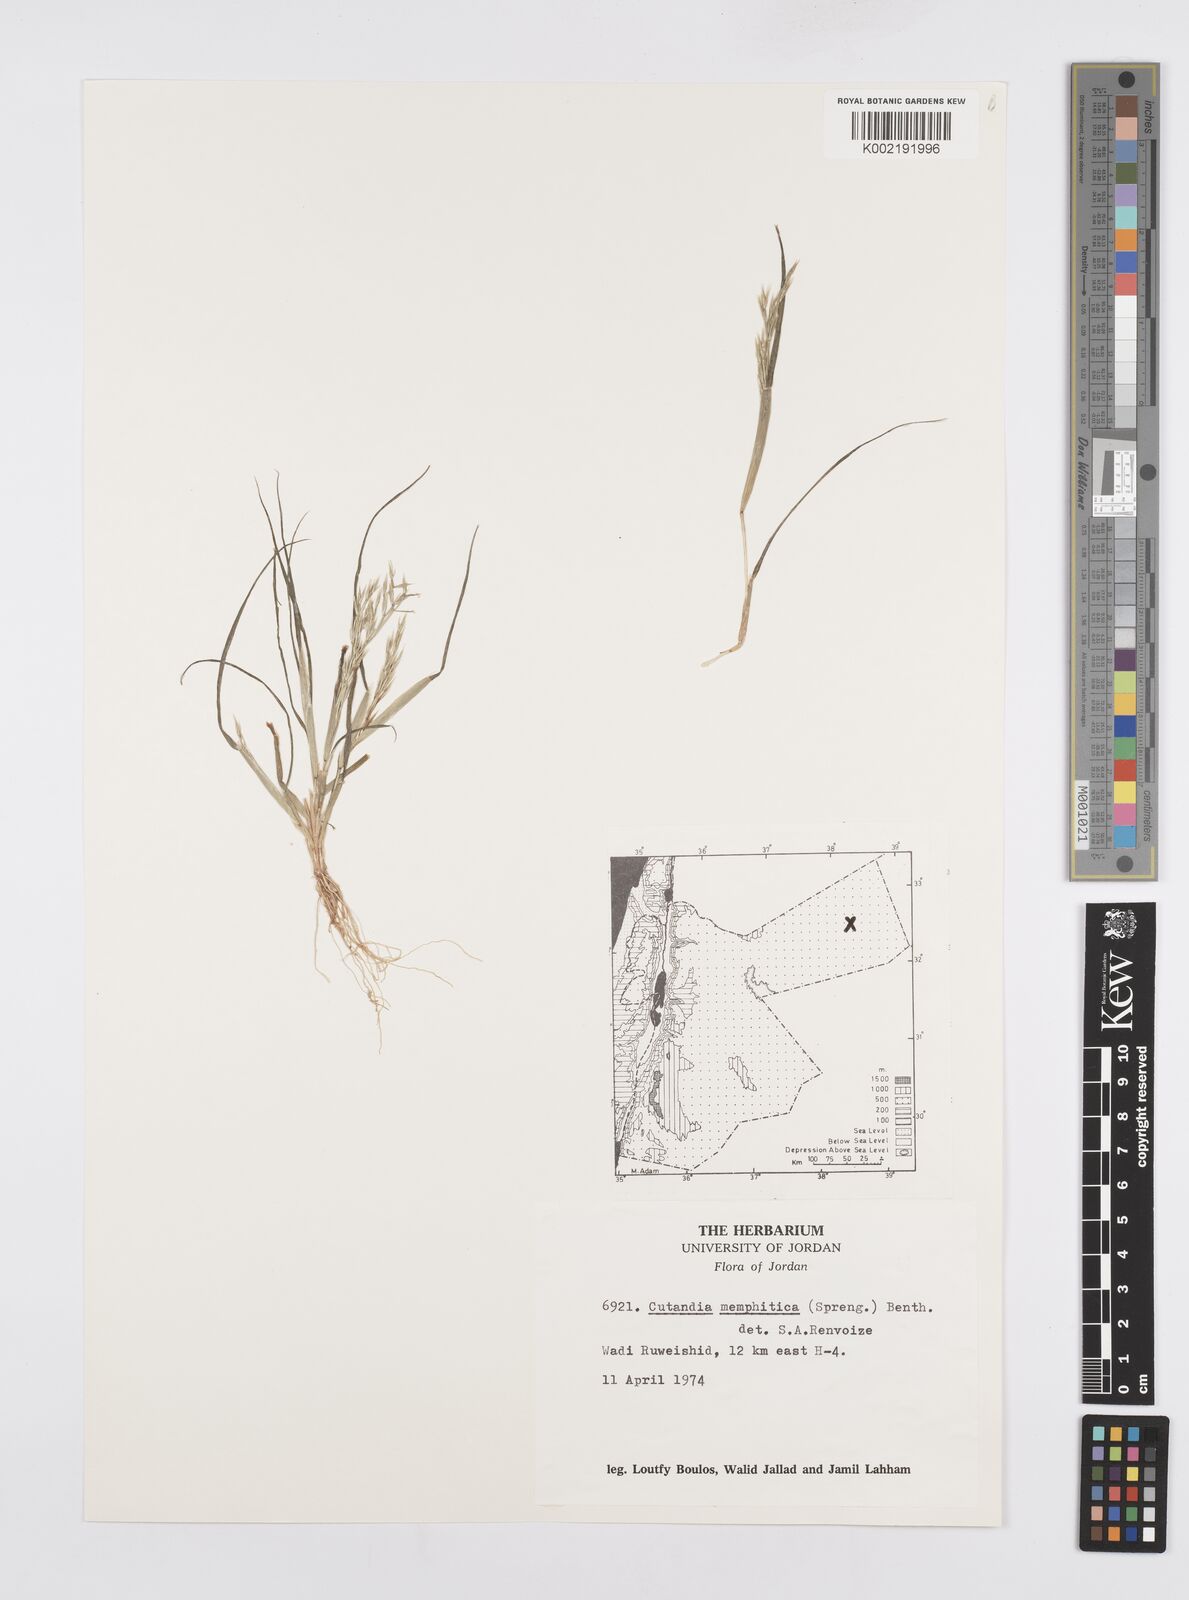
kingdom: Plantae
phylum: Tracheophyta
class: Liliopsida
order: Poales
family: Poaceae
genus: Cutandia
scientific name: Cutandia memphitica
